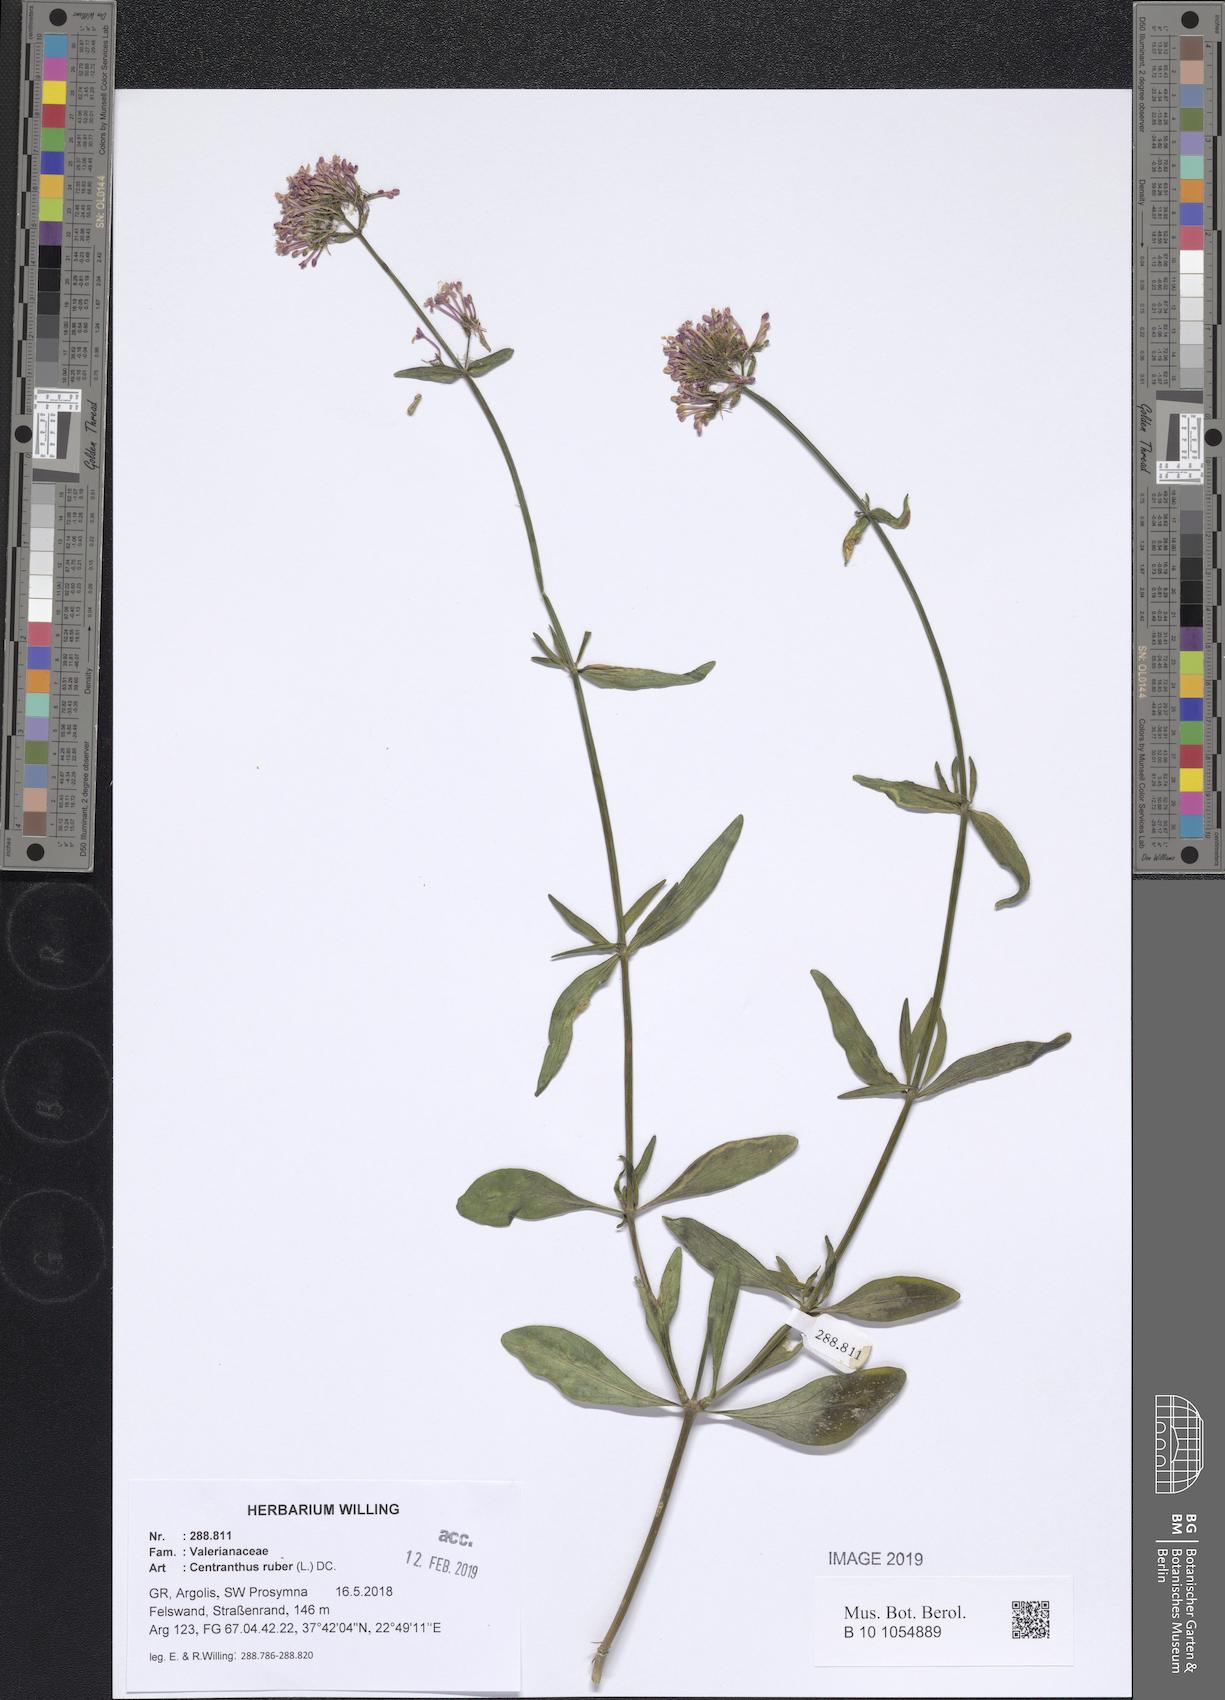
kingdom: Plantae
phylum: Tracheophyta
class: Magnoliopsida
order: Dipsacales
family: Caprifoliaceae
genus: Centranthus
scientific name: Centranthus ruber
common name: Red valerian
